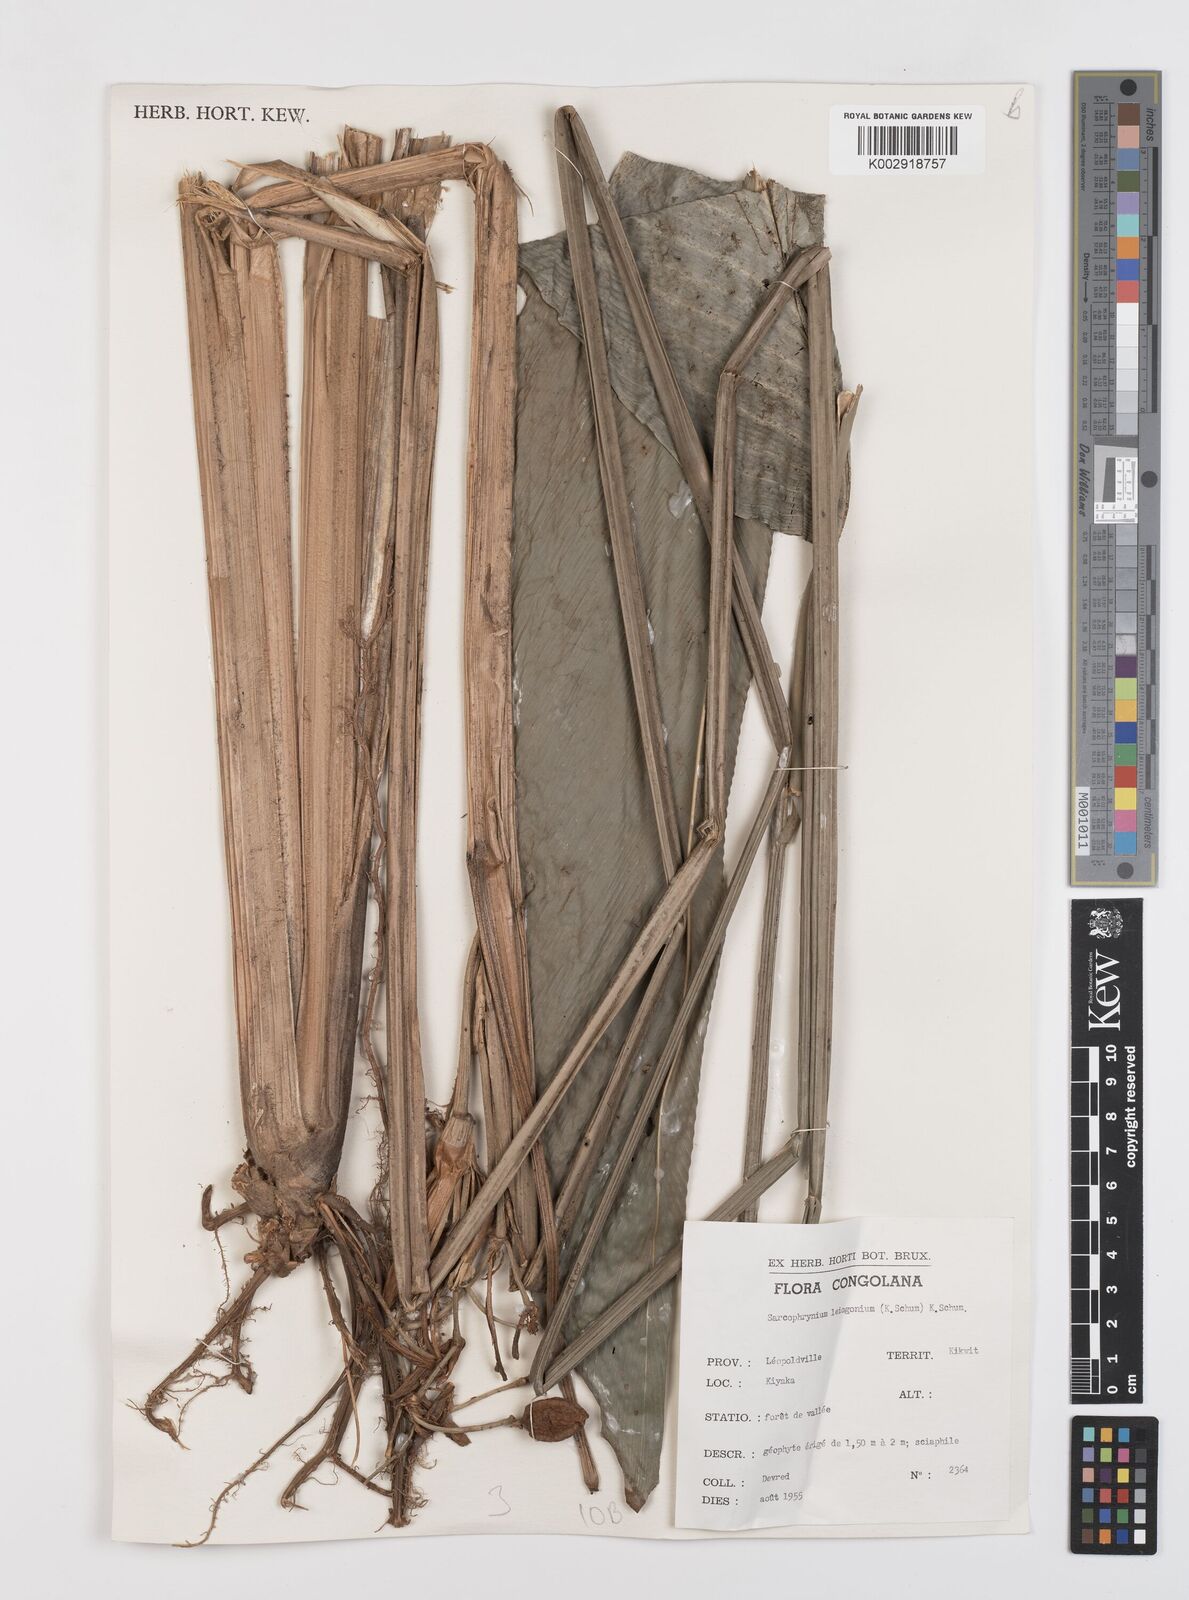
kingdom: Plantae
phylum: Tracheophyta
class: Liliopsida
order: Zingiberales
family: Marantaceae
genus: Sarcophrynium
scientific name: Sarcophrynium prionogonium
